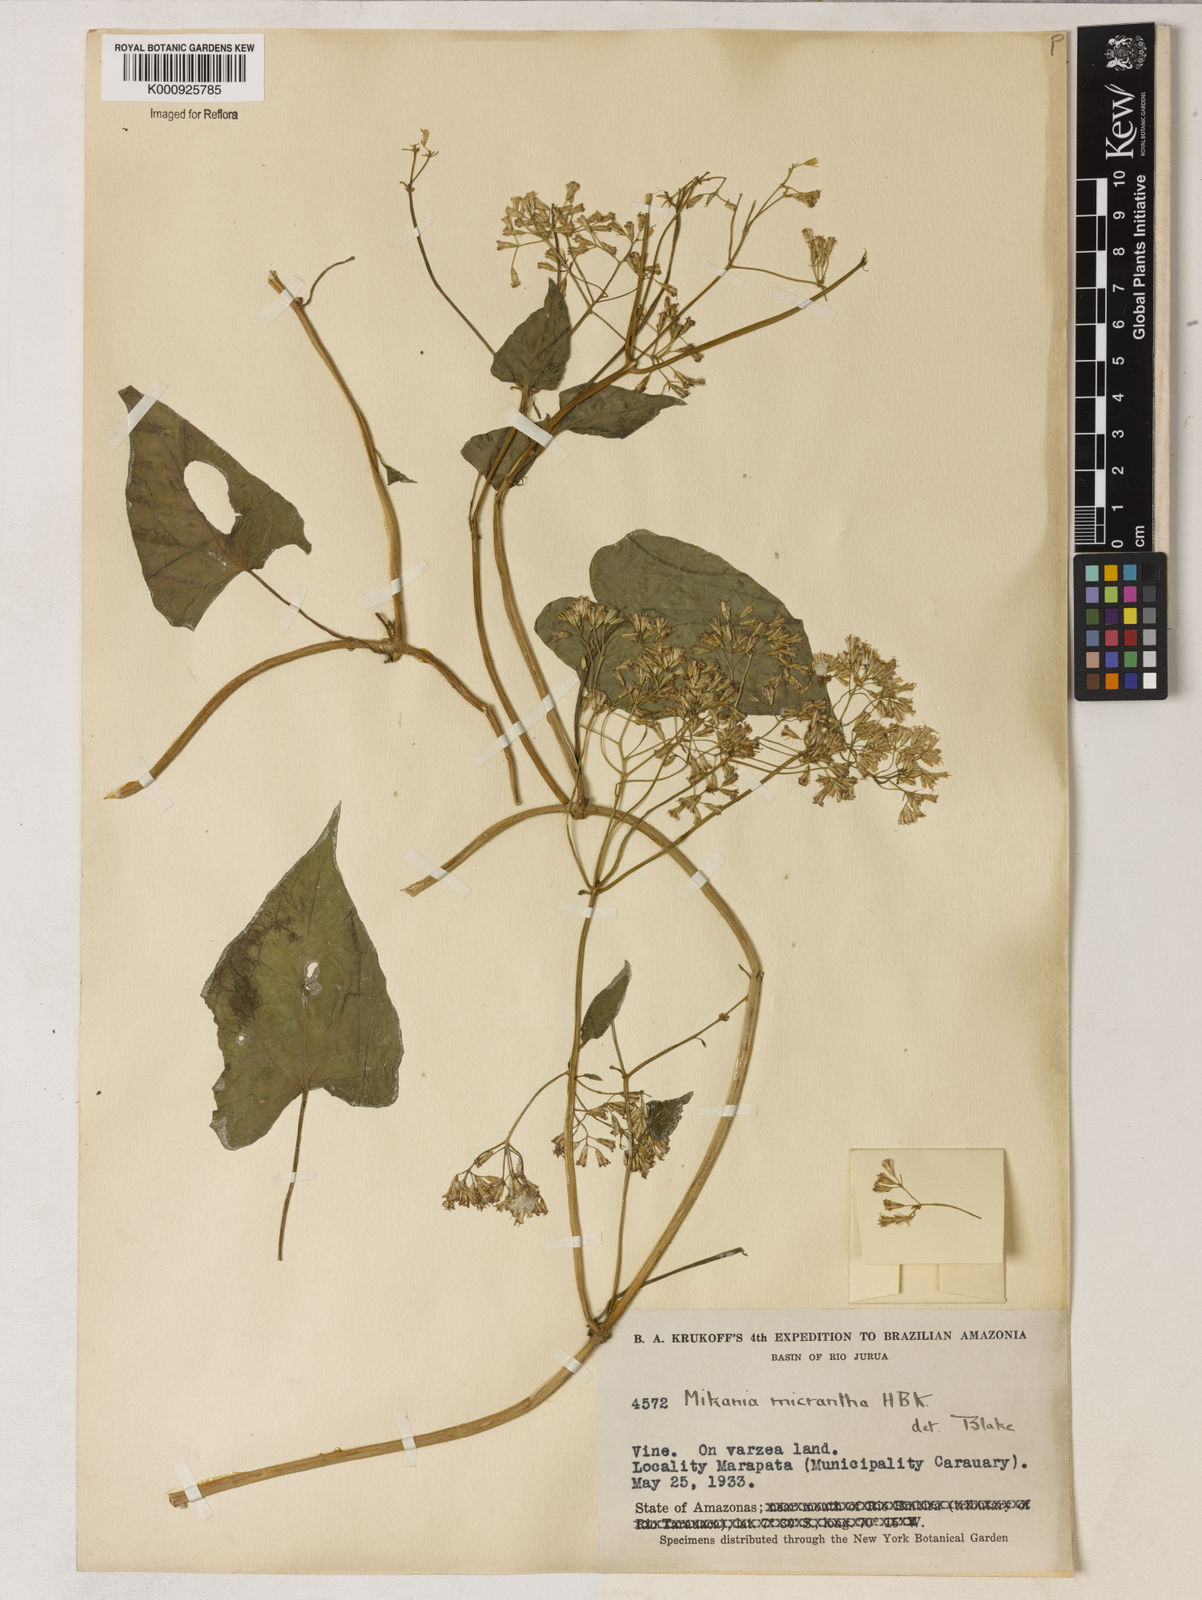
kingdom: Plantae
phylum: Tracheophyta
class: Magnoliopsida
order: Asterales
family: Asteraceae
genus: Mikania
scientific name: Mikania micrantha
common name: Mile-a-minute
